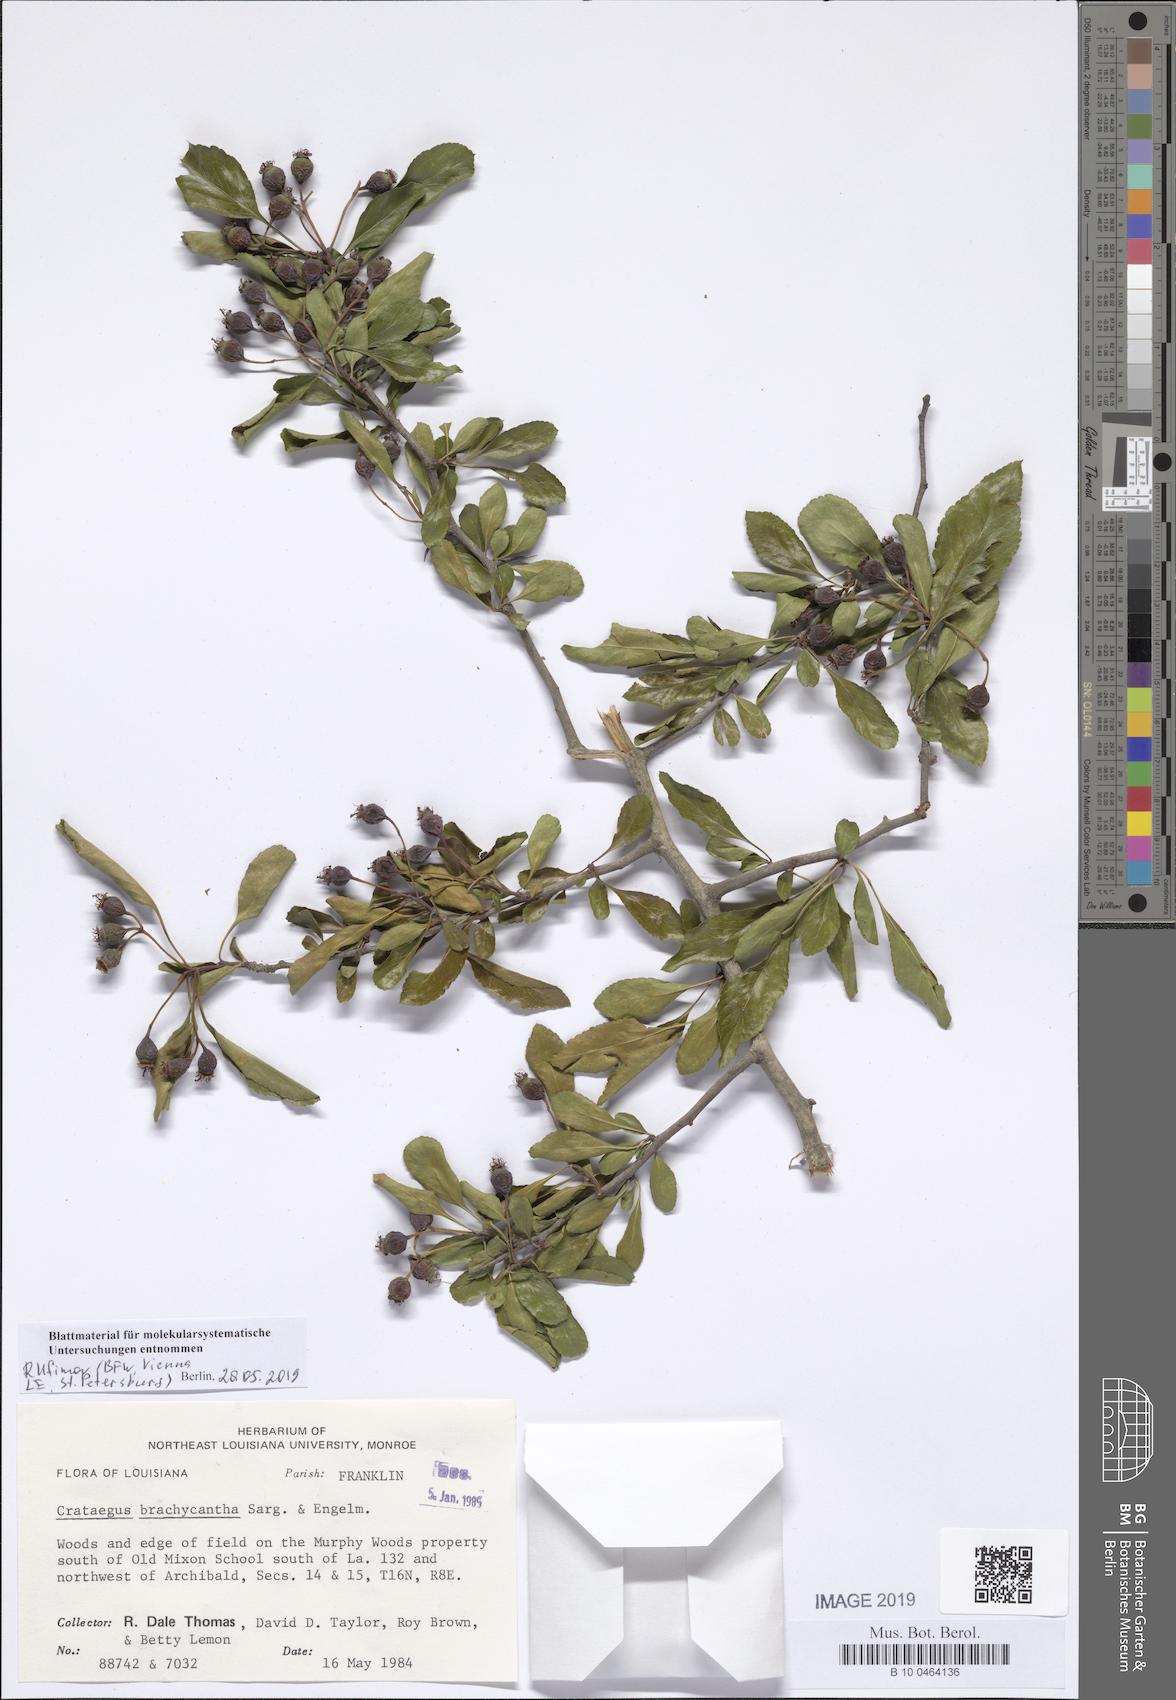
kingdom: Plantae
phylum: Tracheophyta
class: Magnoliopsida
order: Rosales
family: Rosaceae
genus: Crataegus
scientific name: Crataegus brachyacantha
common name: Blueberry-hawthorn
